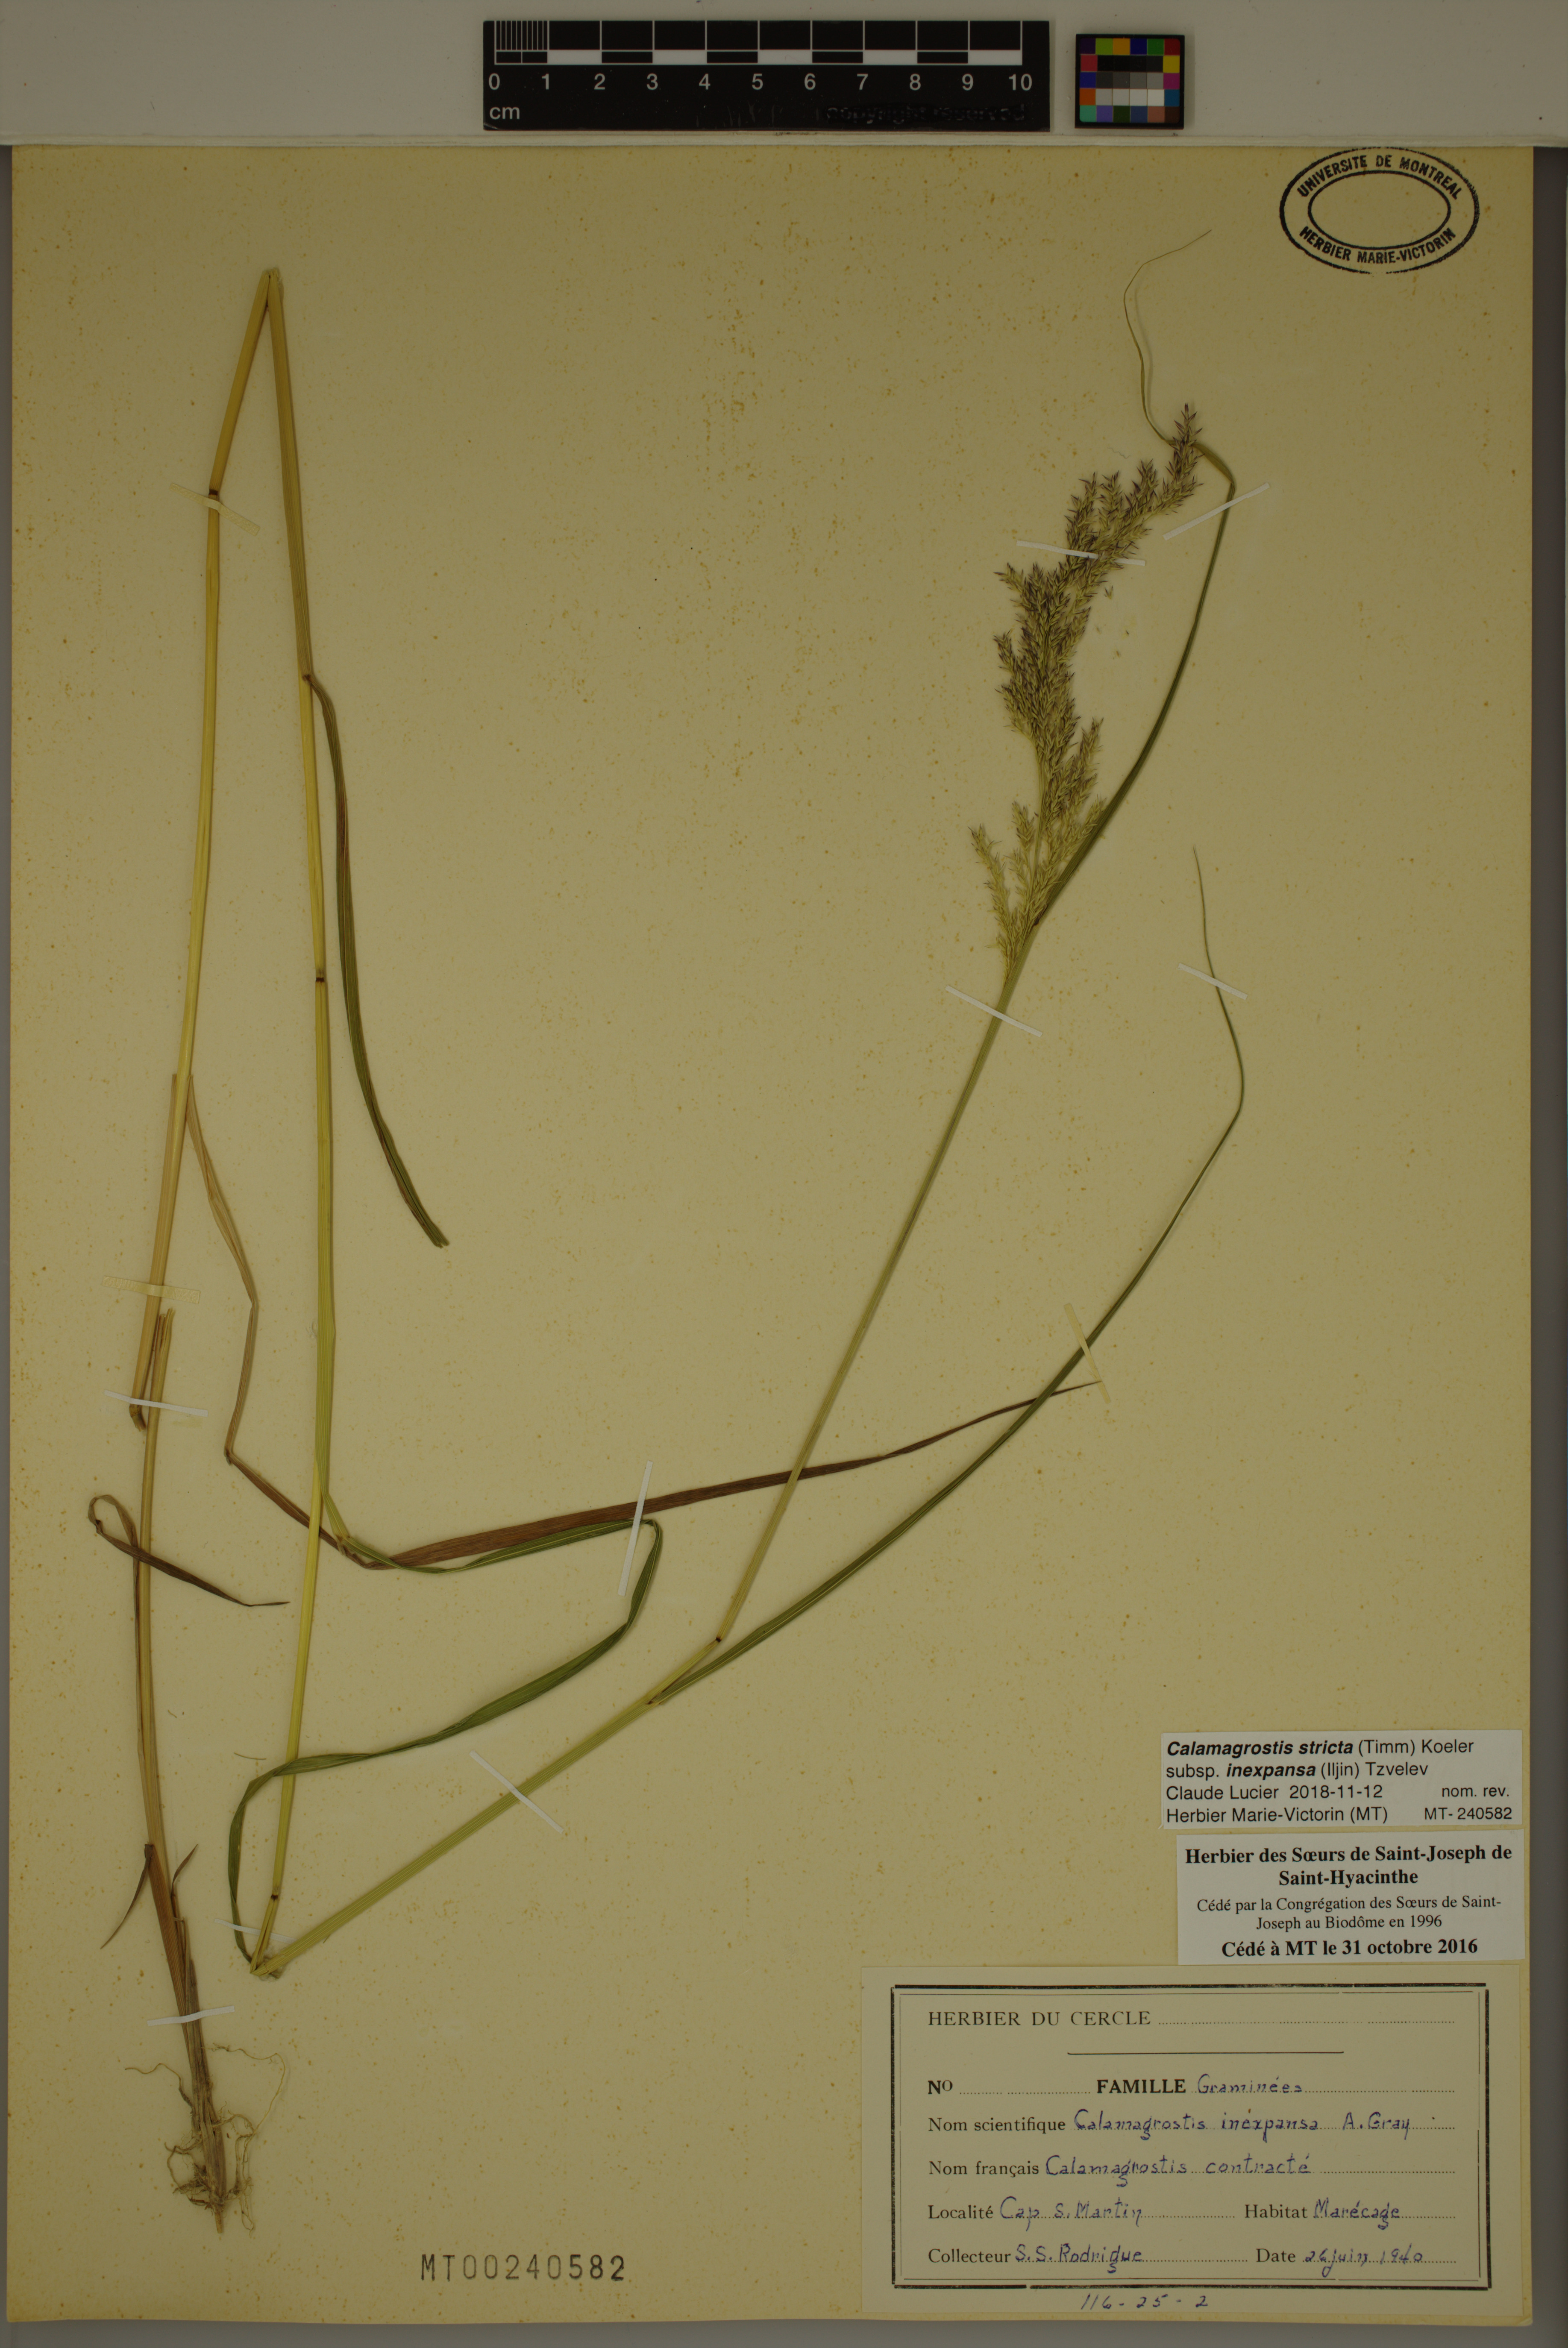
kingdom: Plantae
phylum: Tracheophyta
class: Liliopsida
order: Poales
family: Poaceae
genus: Calamagrostis
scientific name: Calamagrostis inexpansa
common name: Northern reedgrass
